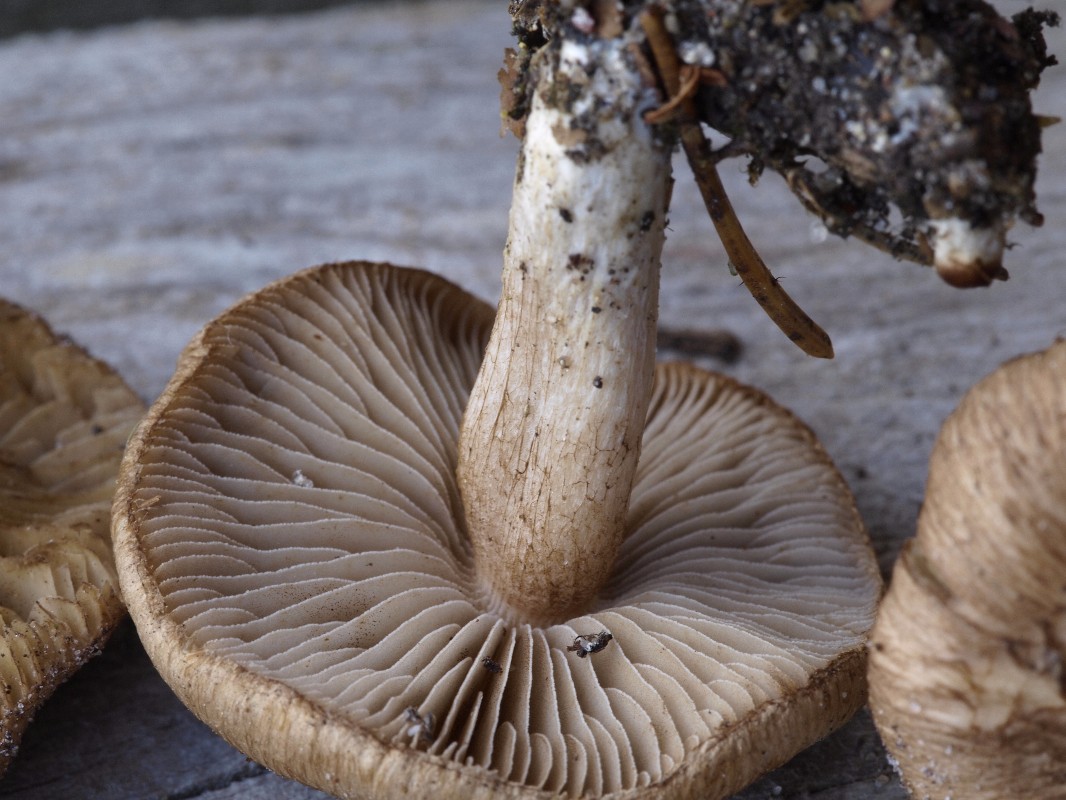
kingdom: Fungi
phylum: Basidiomycota
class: Agaricomycetes
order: Agaricales
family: Inocybaceae
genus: Inocybe
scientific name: Inocybe
